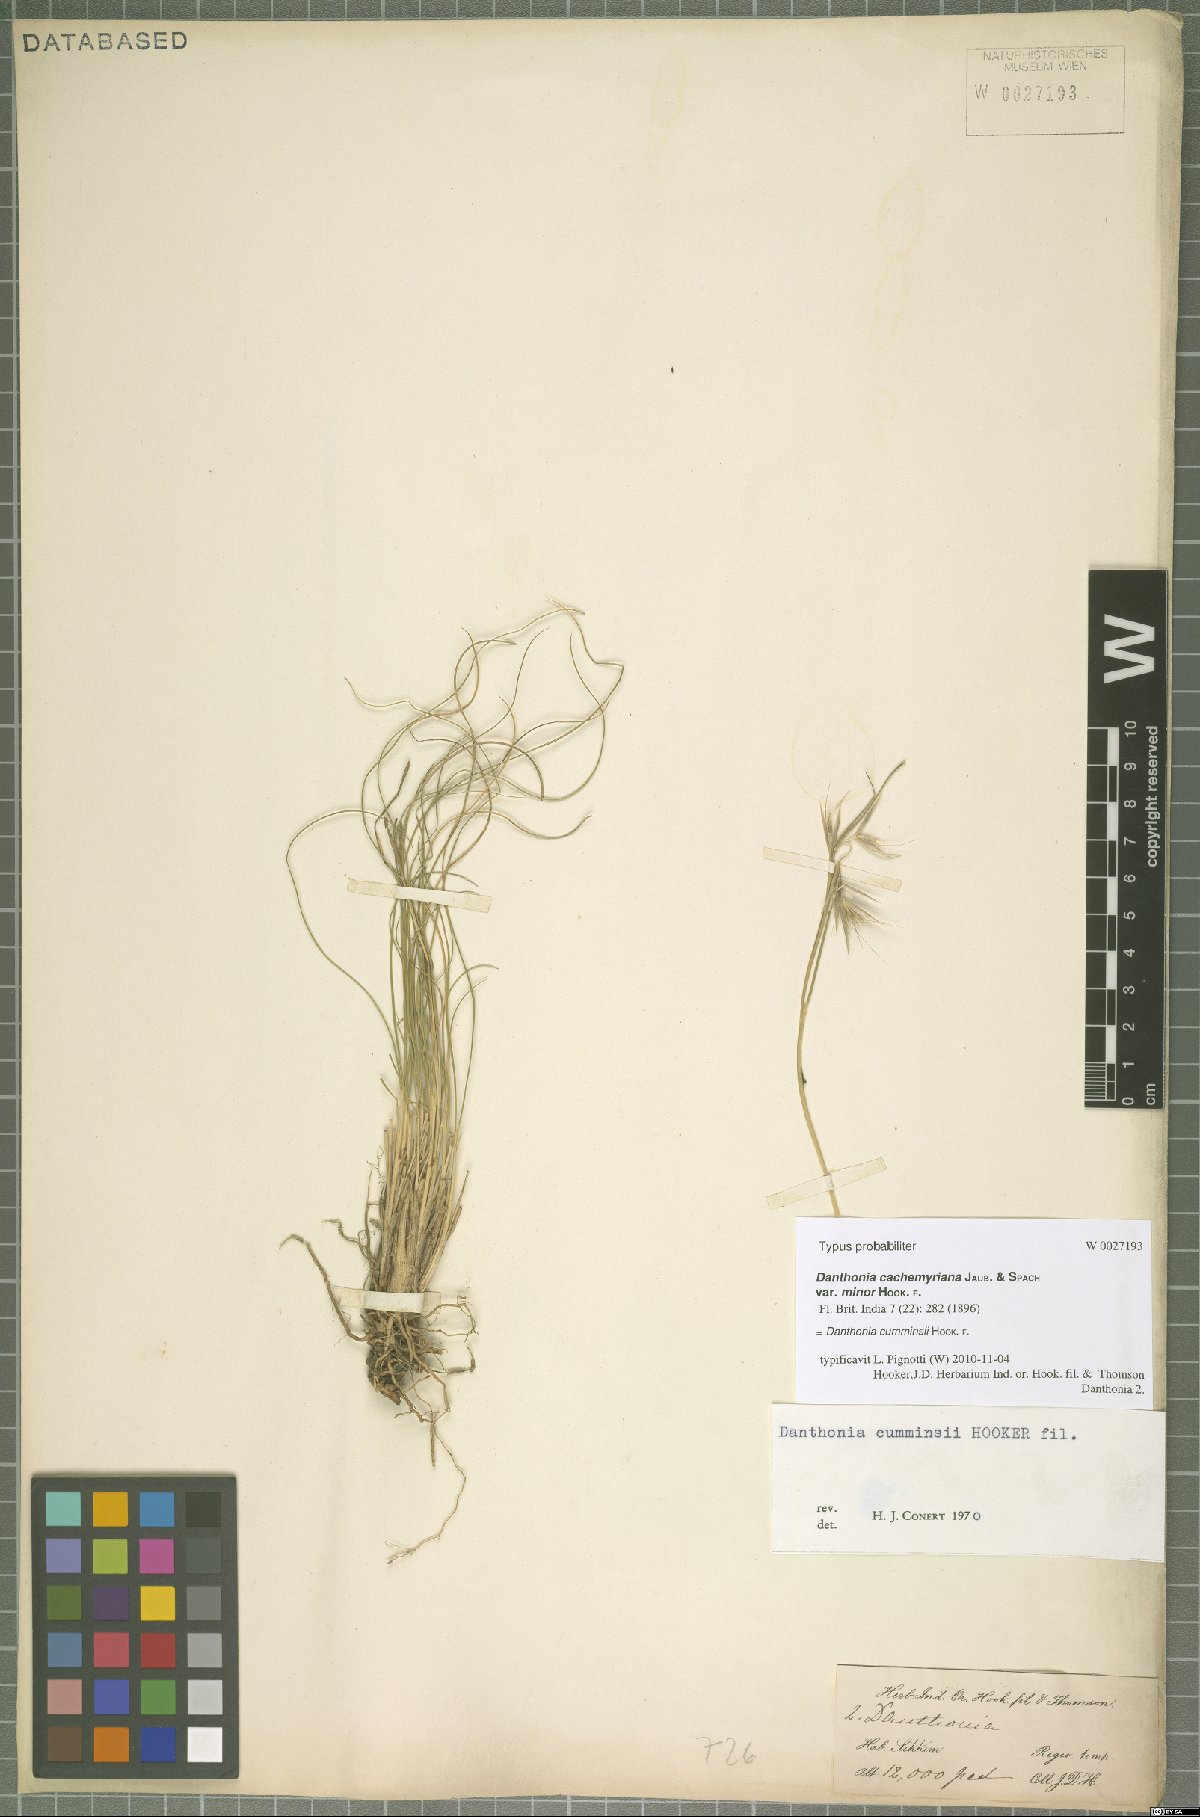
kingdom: Plantae
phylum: Tracheophyta
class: Liliopsida
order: Poales
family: Poaceae
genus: Tenaxia
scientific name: Tenaxia cumminsii
